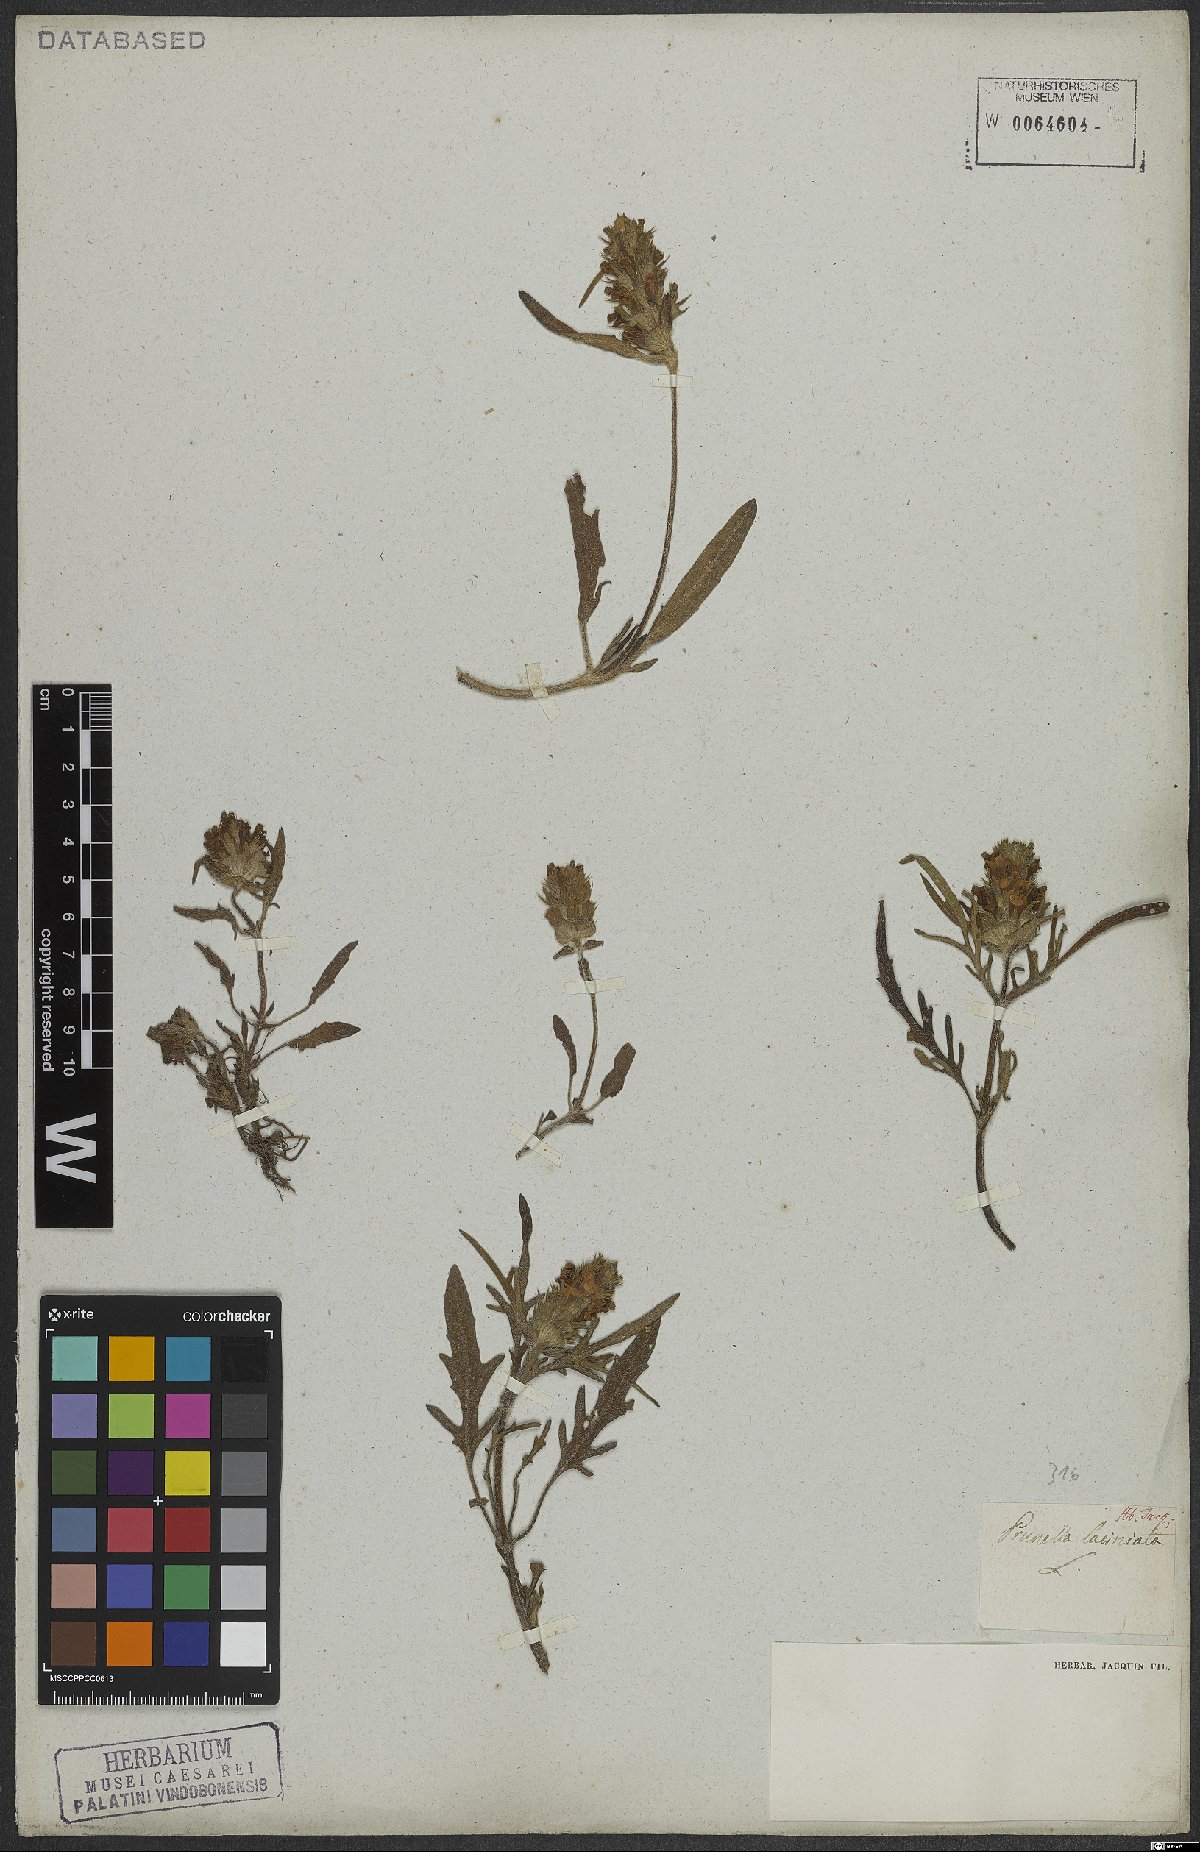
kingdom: Plantae
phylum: Tracheophyta
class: Magnoliopsida
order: Lamiales
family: Lamiaceae
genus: Prunella
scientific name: Prunella laciniata
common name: Cut-leaved selfheal
